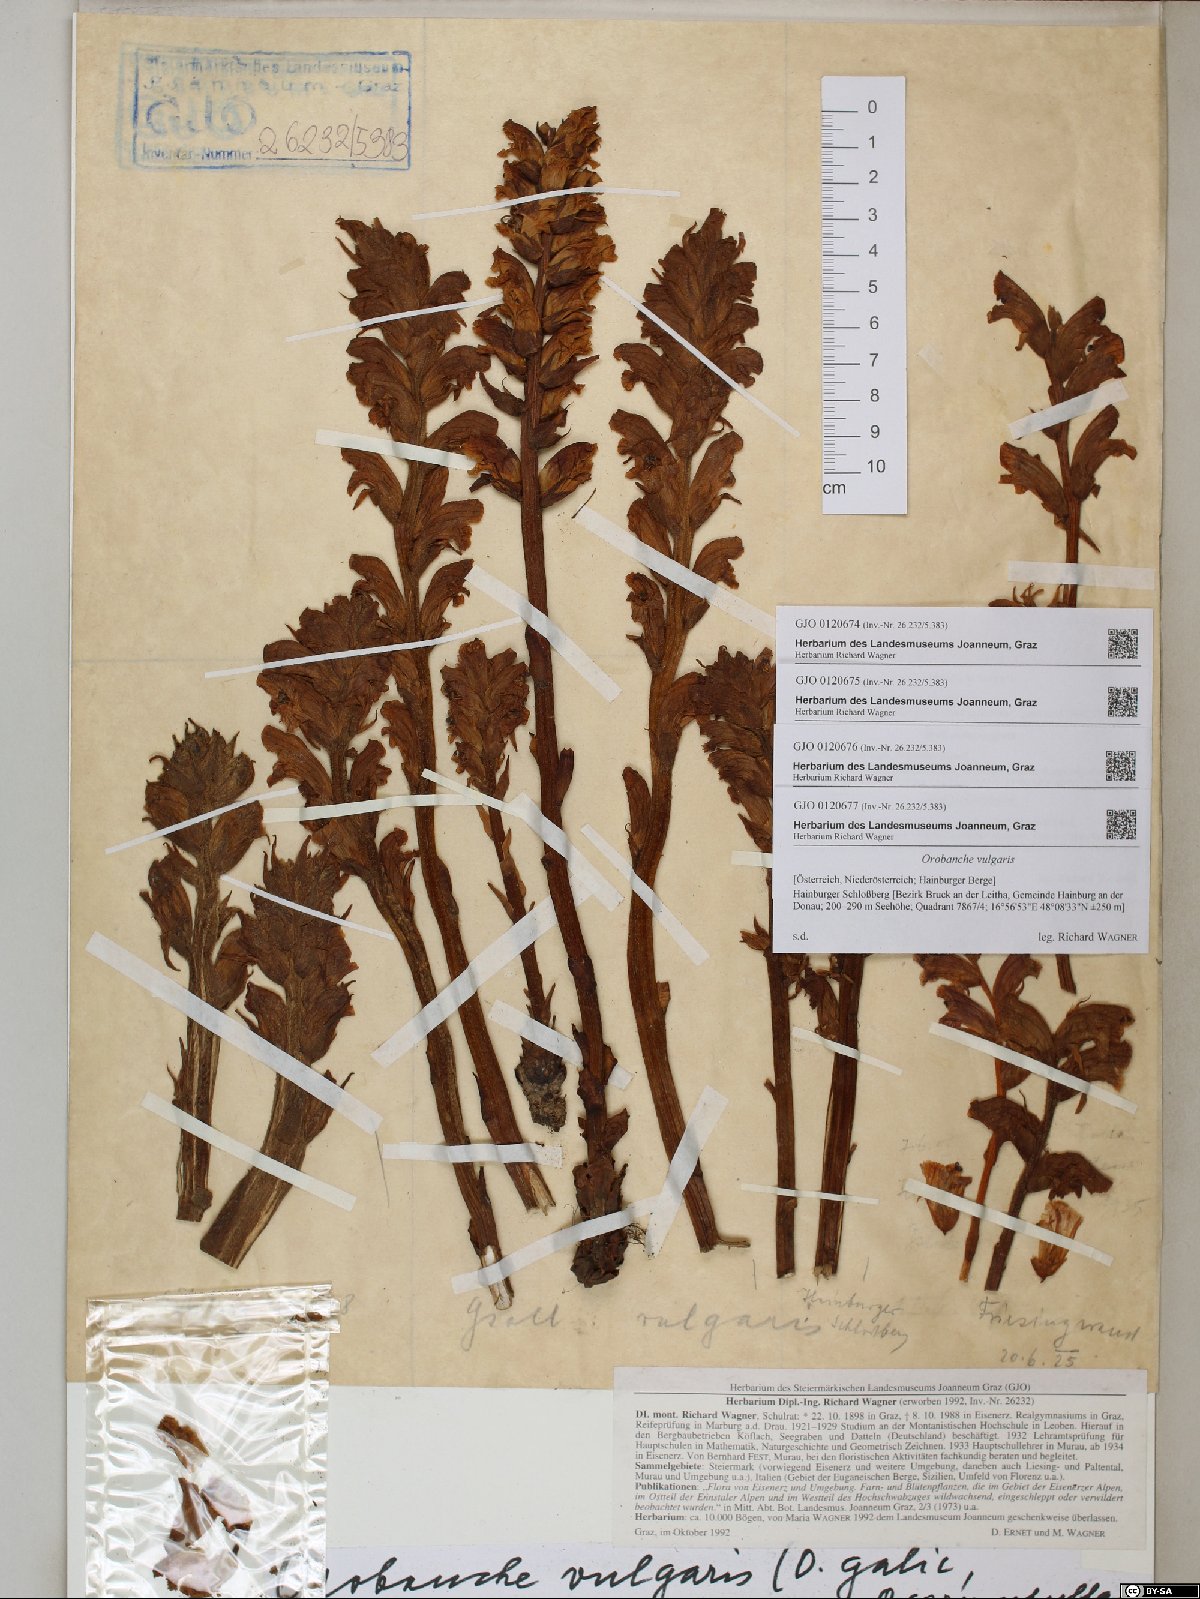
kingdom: Plantae
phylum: Tracheophyta
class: Magnoliopsida
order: Lamiales
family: Orobanchaceae
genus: Orobanche
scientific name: Orobanche caryophyllacea
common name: Bedstraw broomrape
